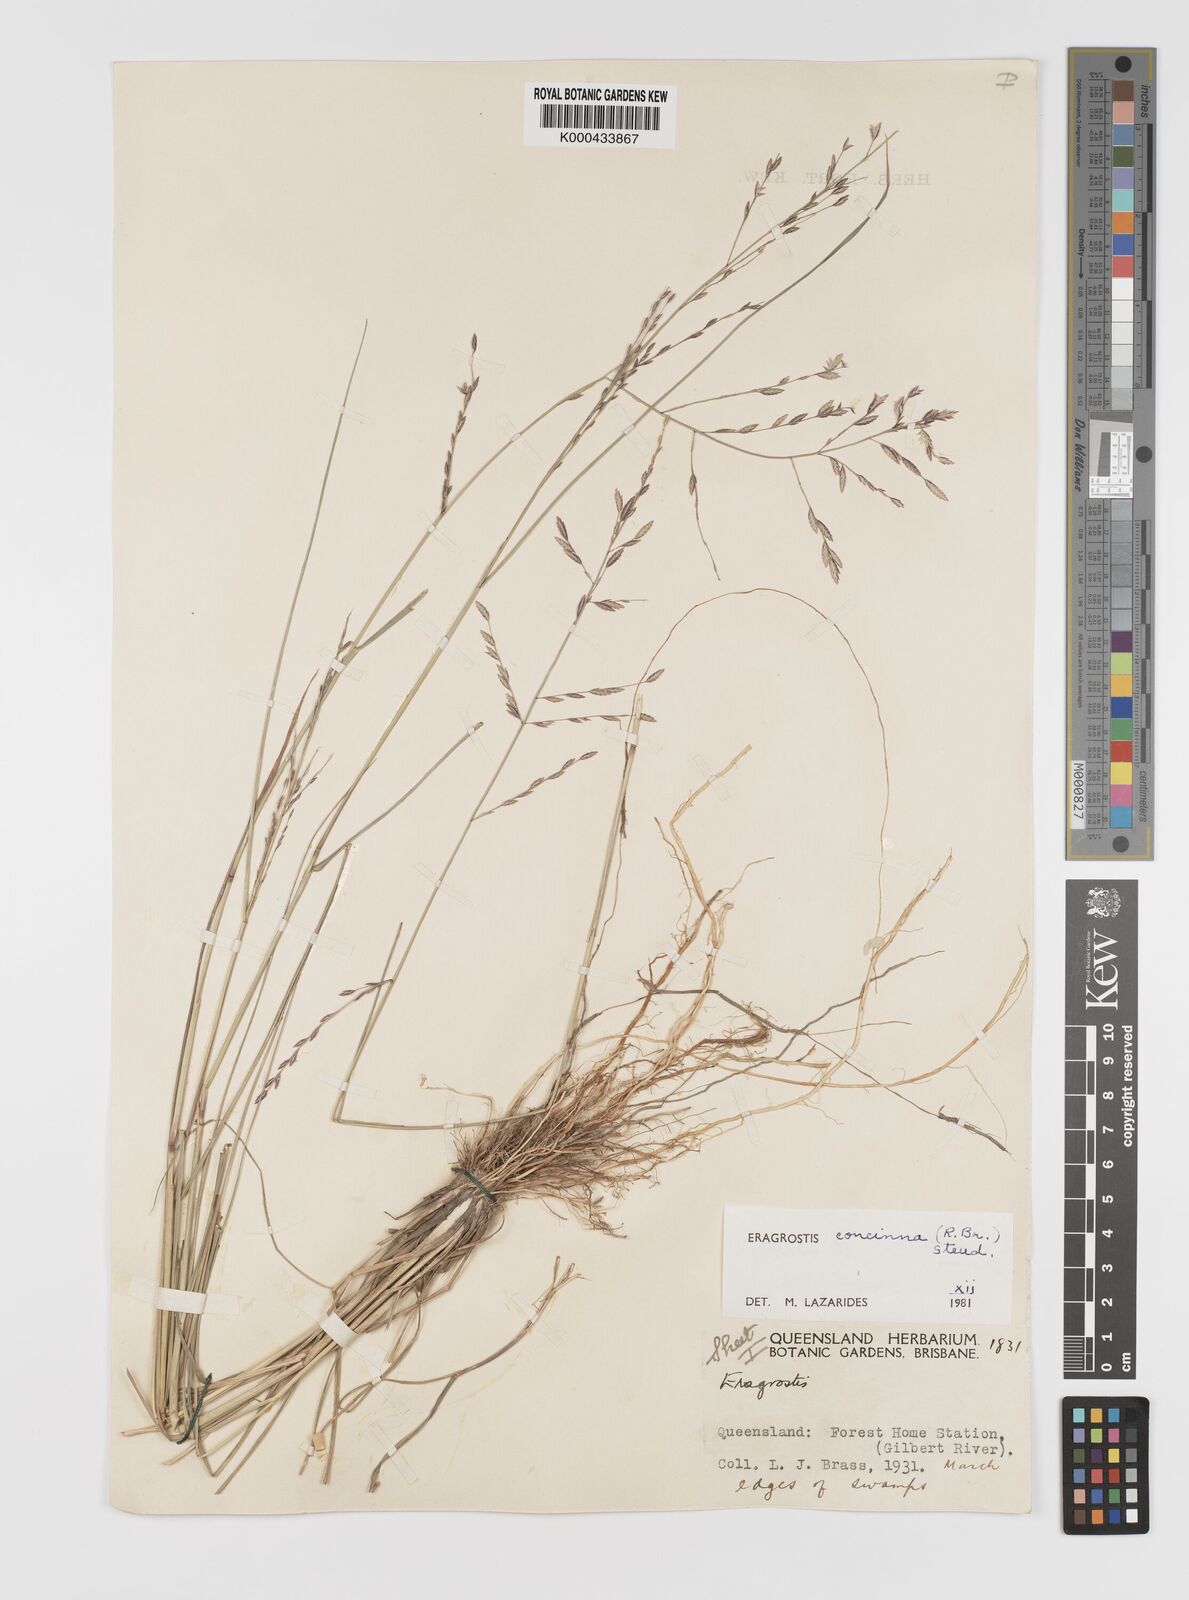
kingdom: Plantae
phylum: Tracheophyta
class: Liliopsida
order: Poales
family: Poaceae
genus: Eragrostis
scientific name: Eragrostis concinna
